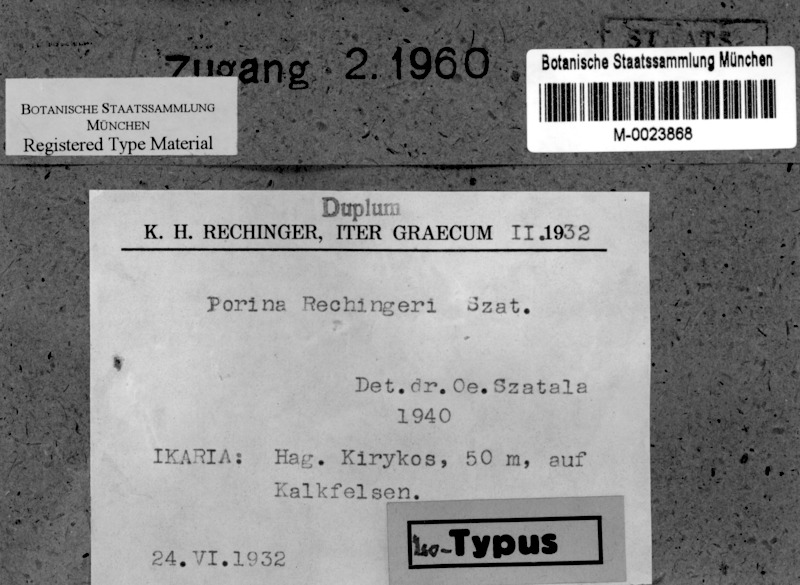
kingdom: Fungi
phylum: Ascomycota
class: Lecanoromycetes
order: Pertusariales
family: Pertusariaceae
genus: Porina
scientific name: Porina
